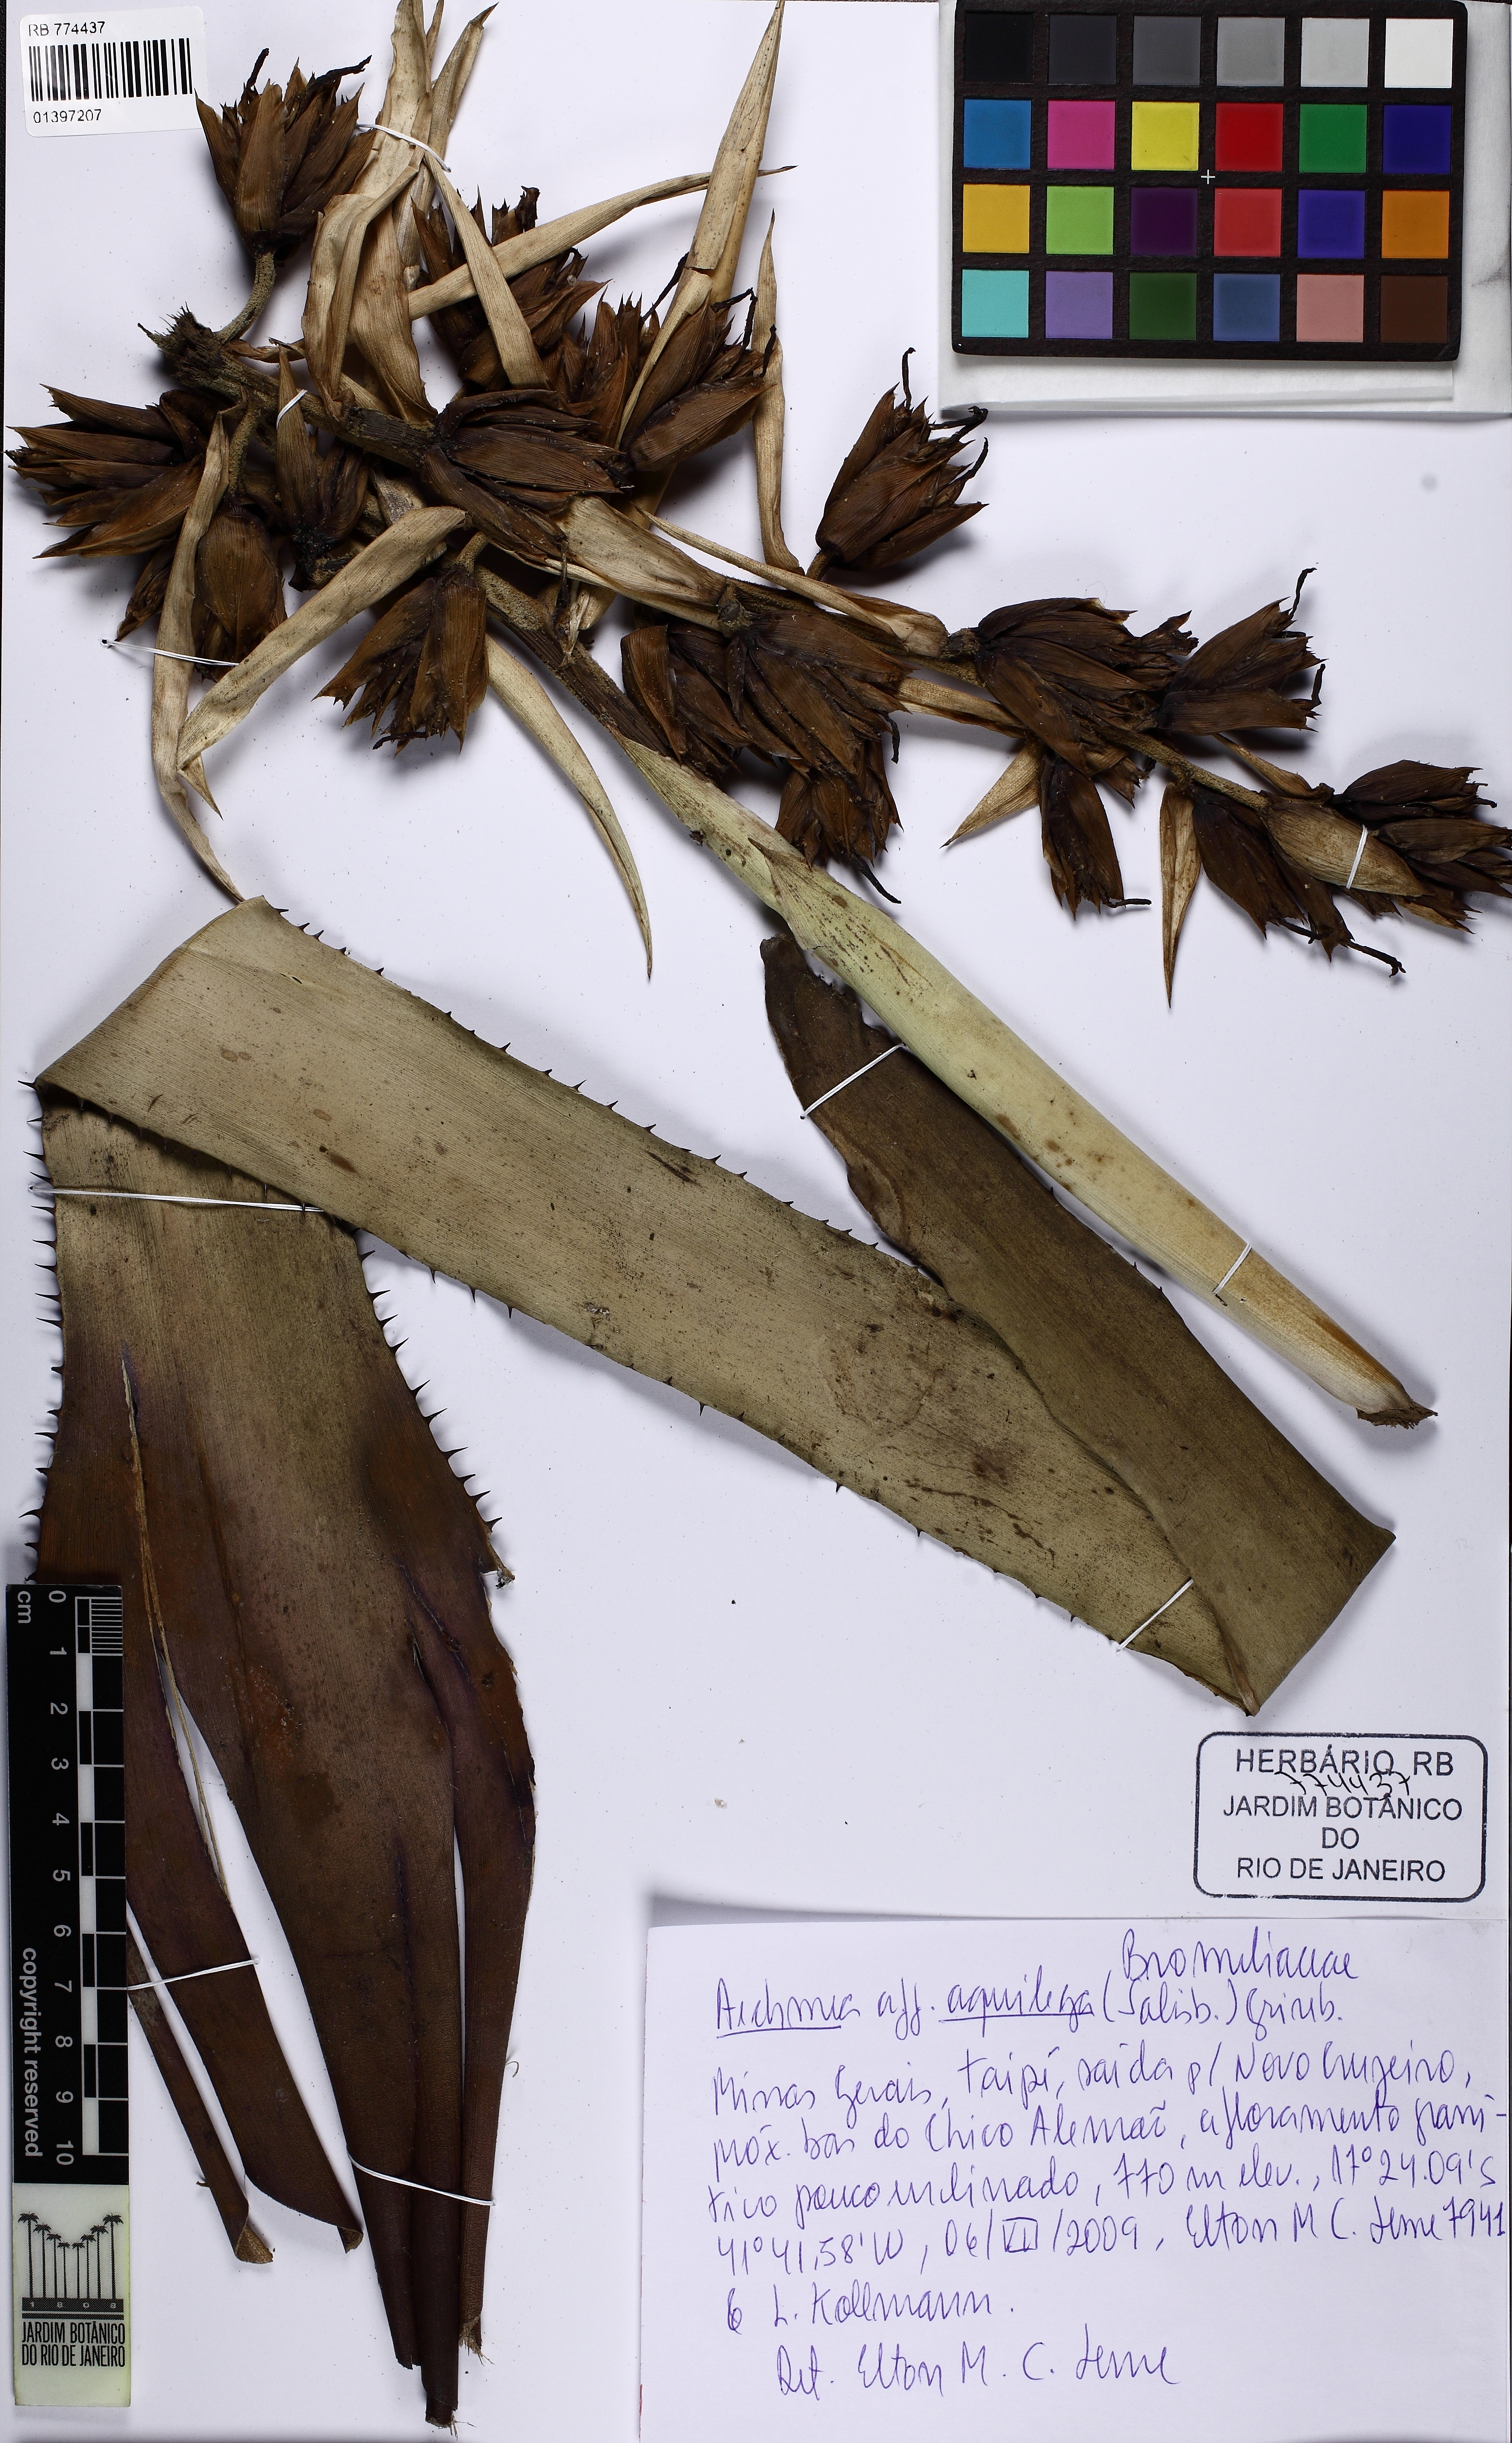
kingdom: Plantae
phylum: Tracheophyta
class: Liliopsida
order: Poales
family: Bromeliaceae
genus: Aechmea
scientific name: Aechmea aquilega
